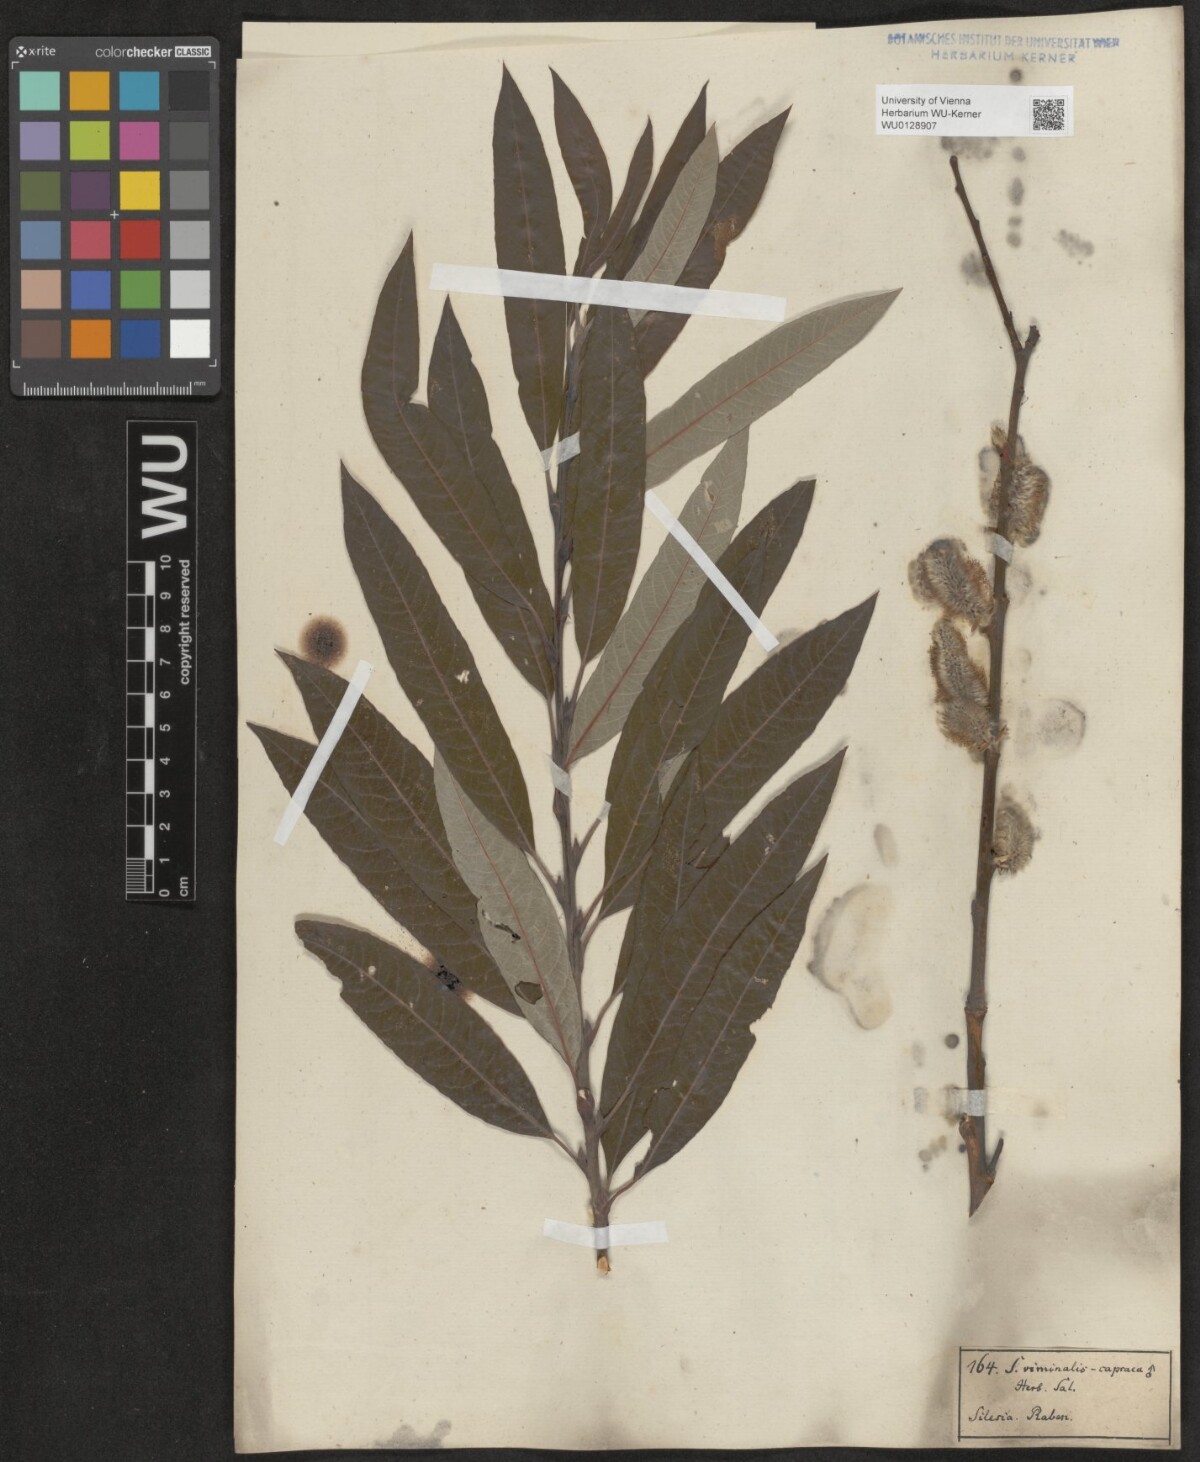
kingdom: Plantae
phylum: Tracheophyta
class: Magnoliopsida
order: Malpighiales
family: Salicaceae
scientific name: Salicaceae
